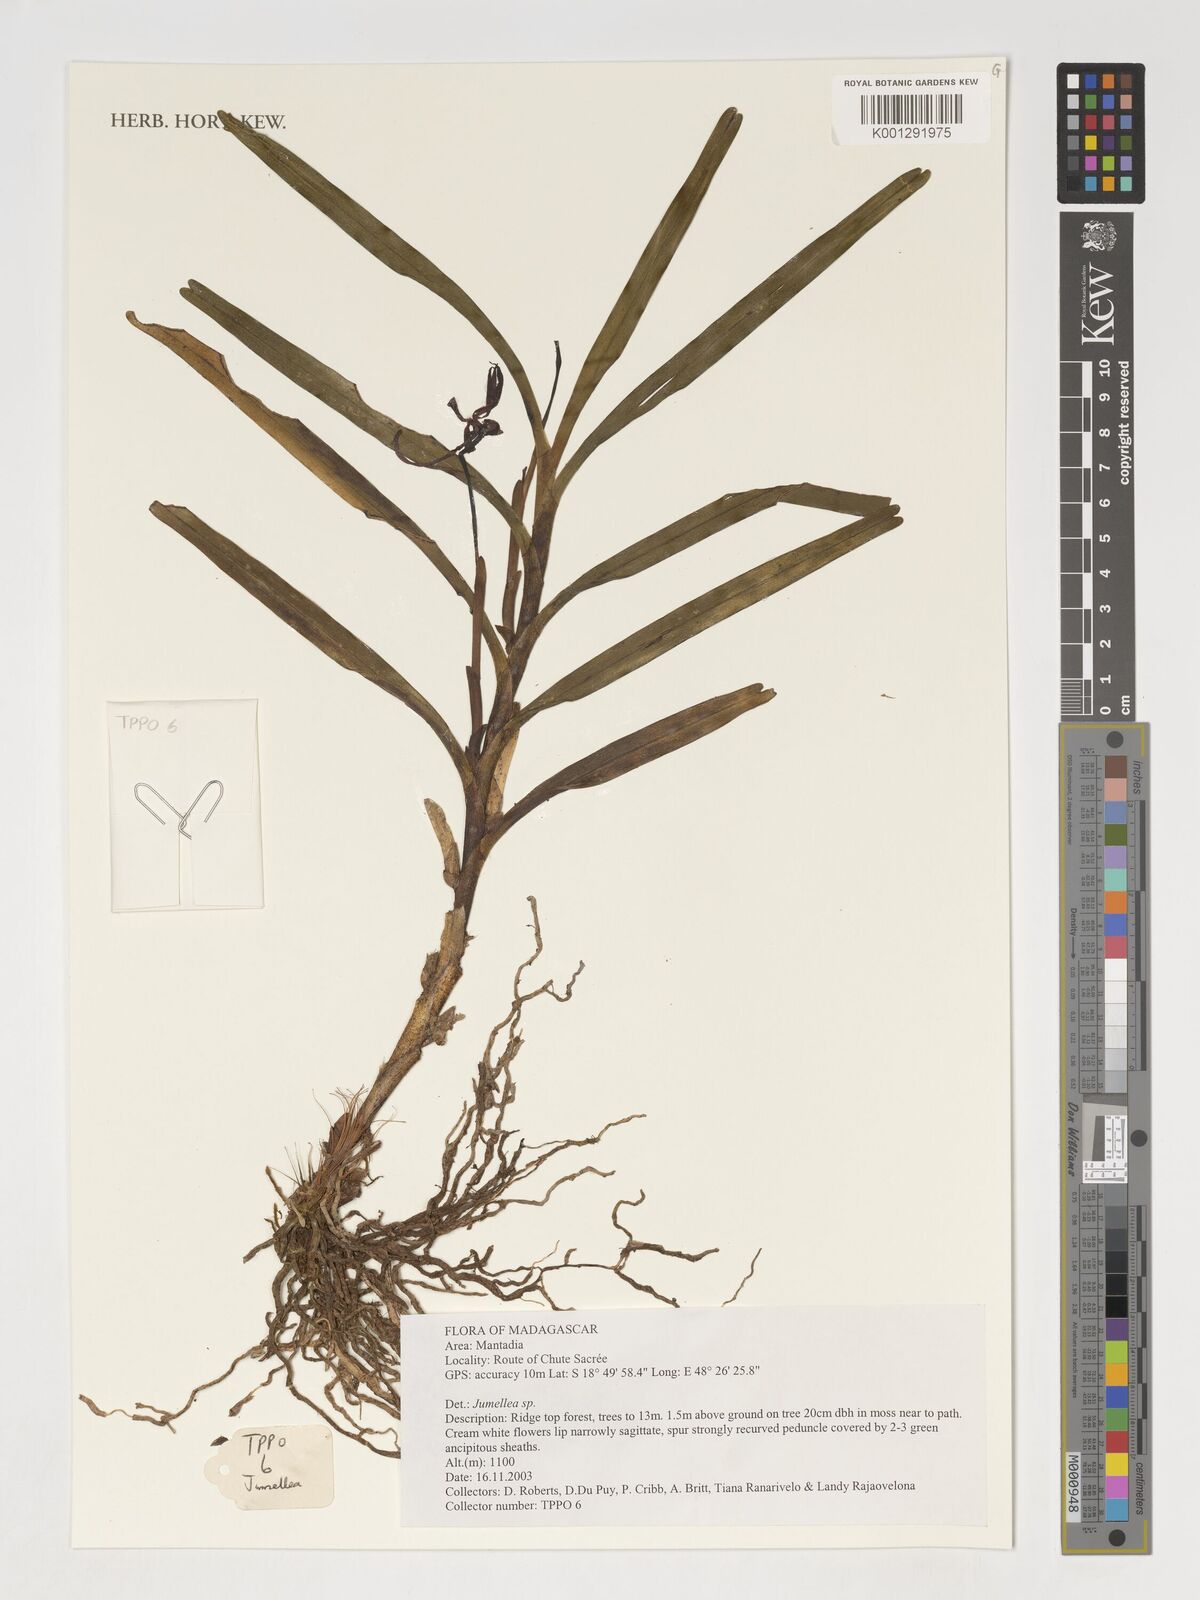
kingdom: Plantae
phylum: Tracheophyta
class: Liliopsida
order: Asparagales
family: Orchidaceae
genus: Jumellea
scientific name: Jumellea
